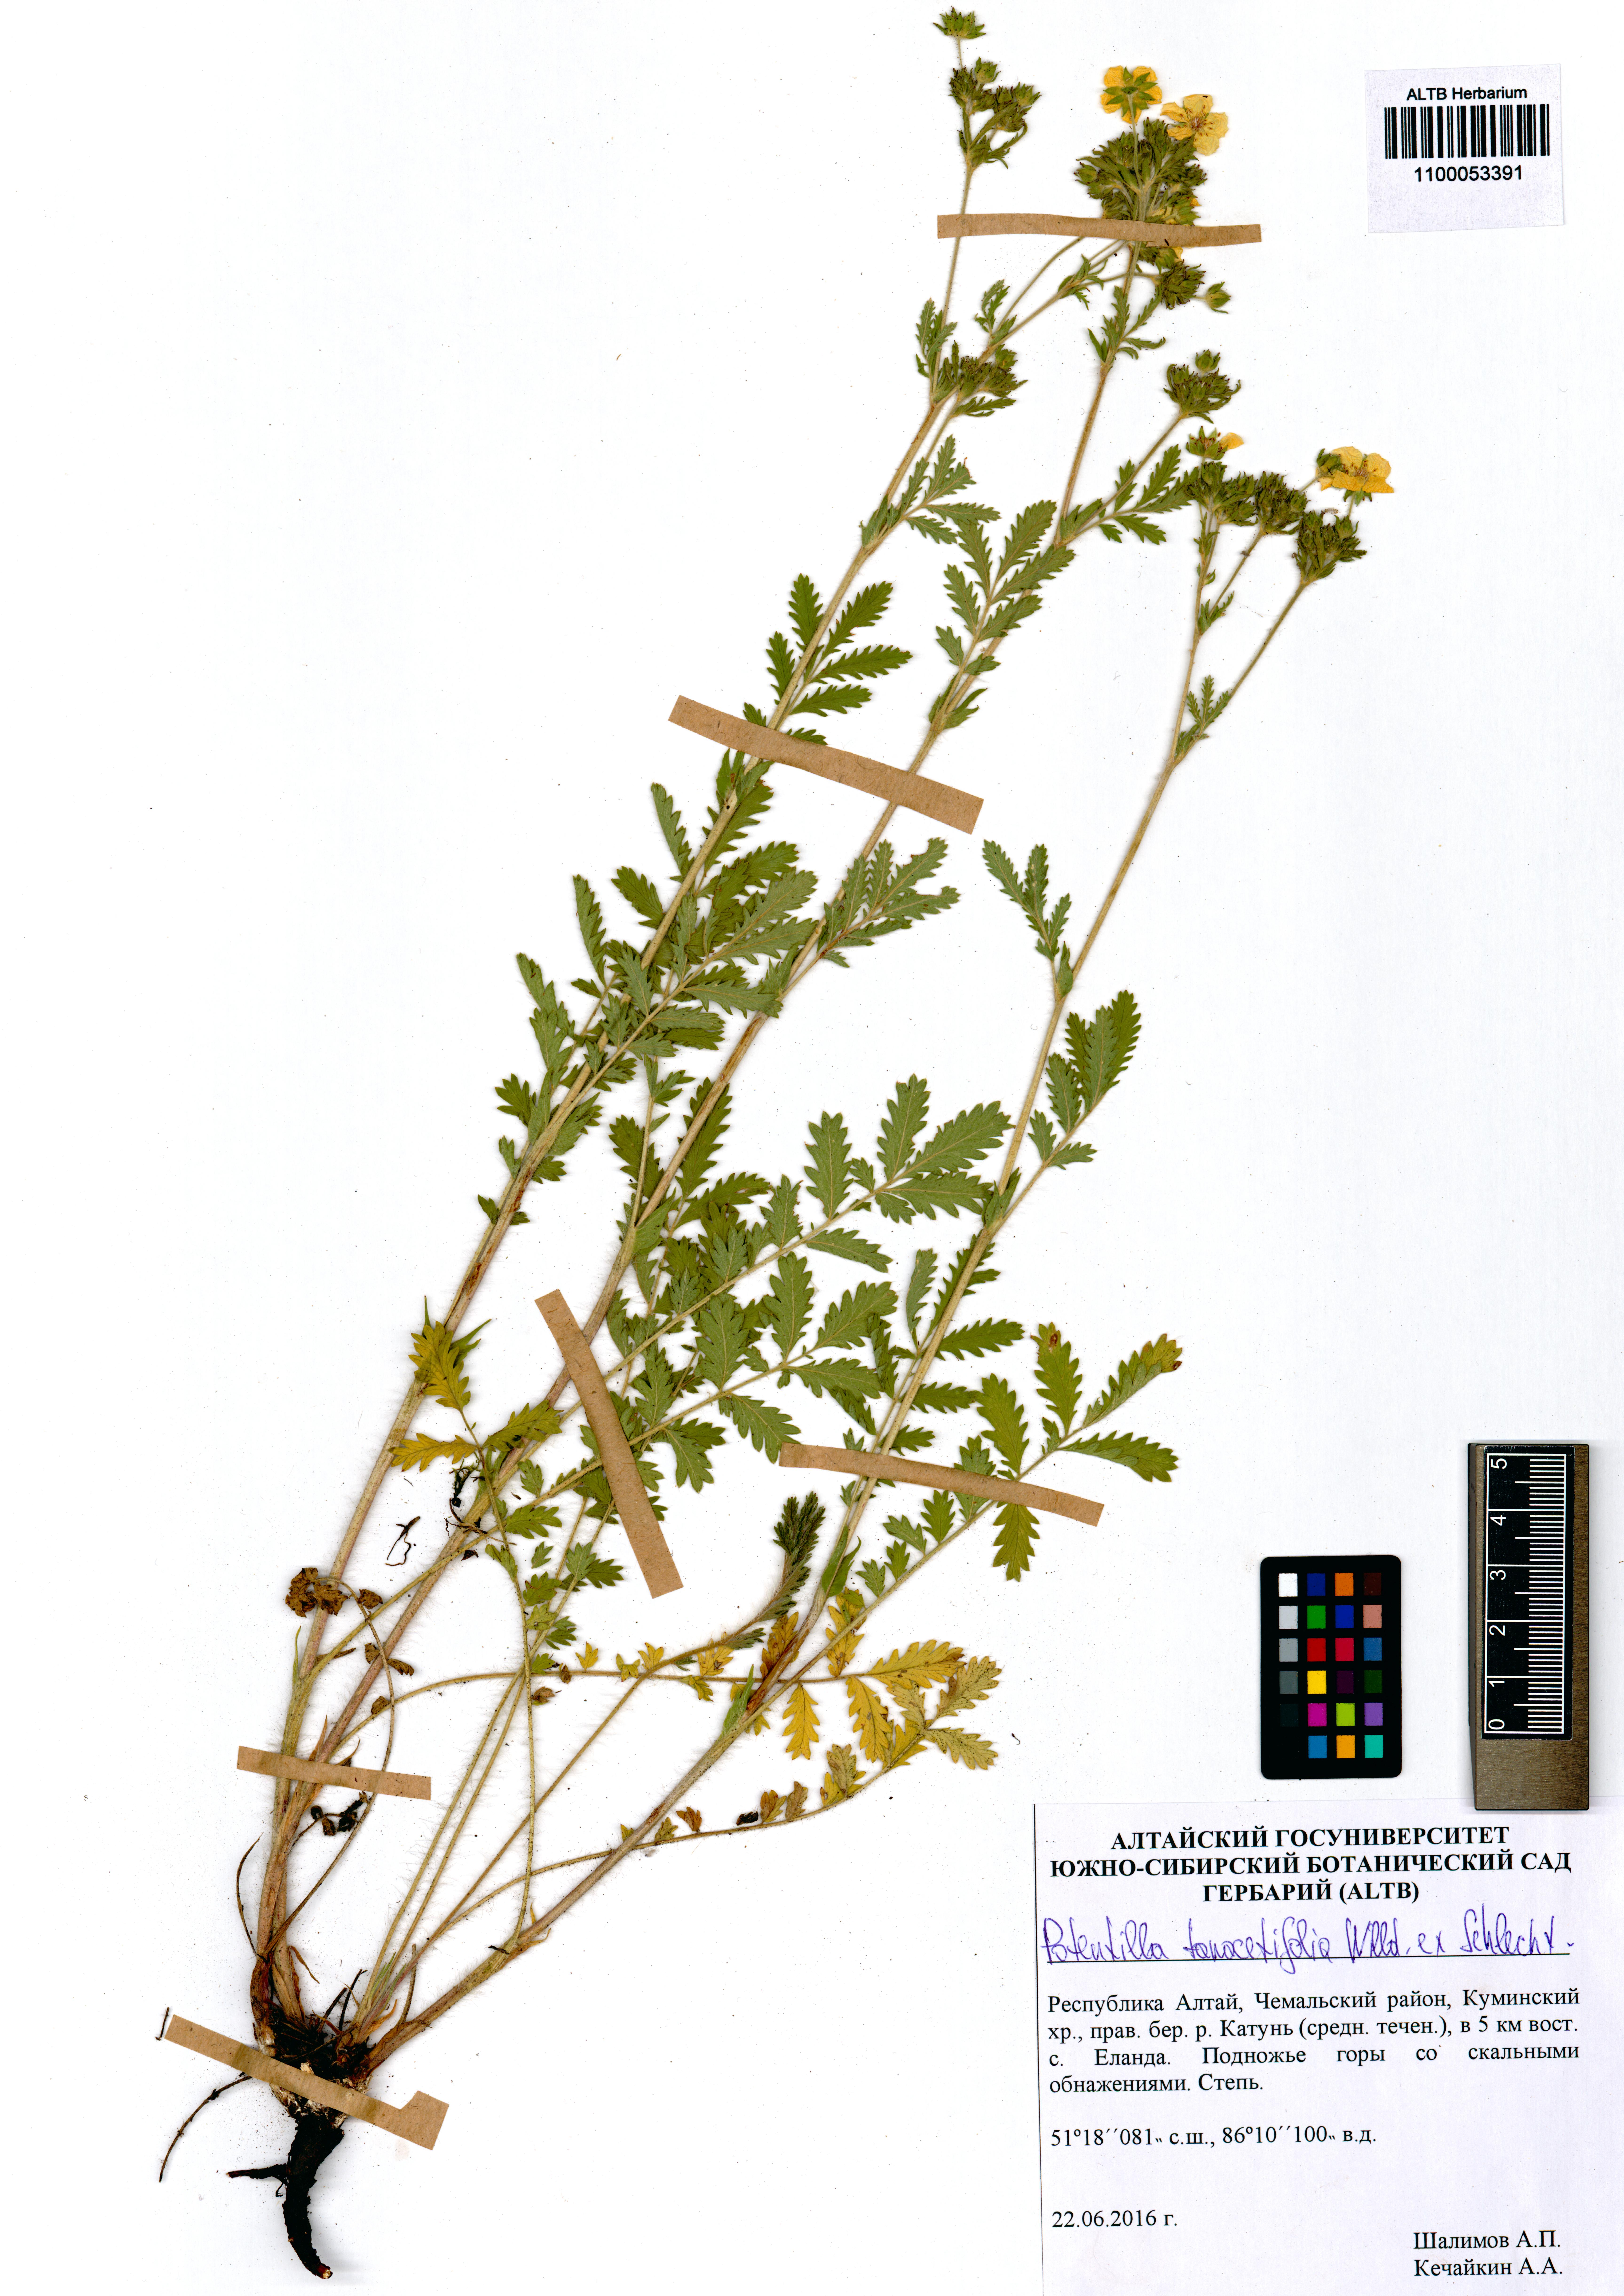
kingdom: Plantae
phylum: Tracheophyta
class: Magnoliopsida
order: Rosales
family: Rosaceae
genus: Potentilla
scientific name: Potentilla tanacetifolia
